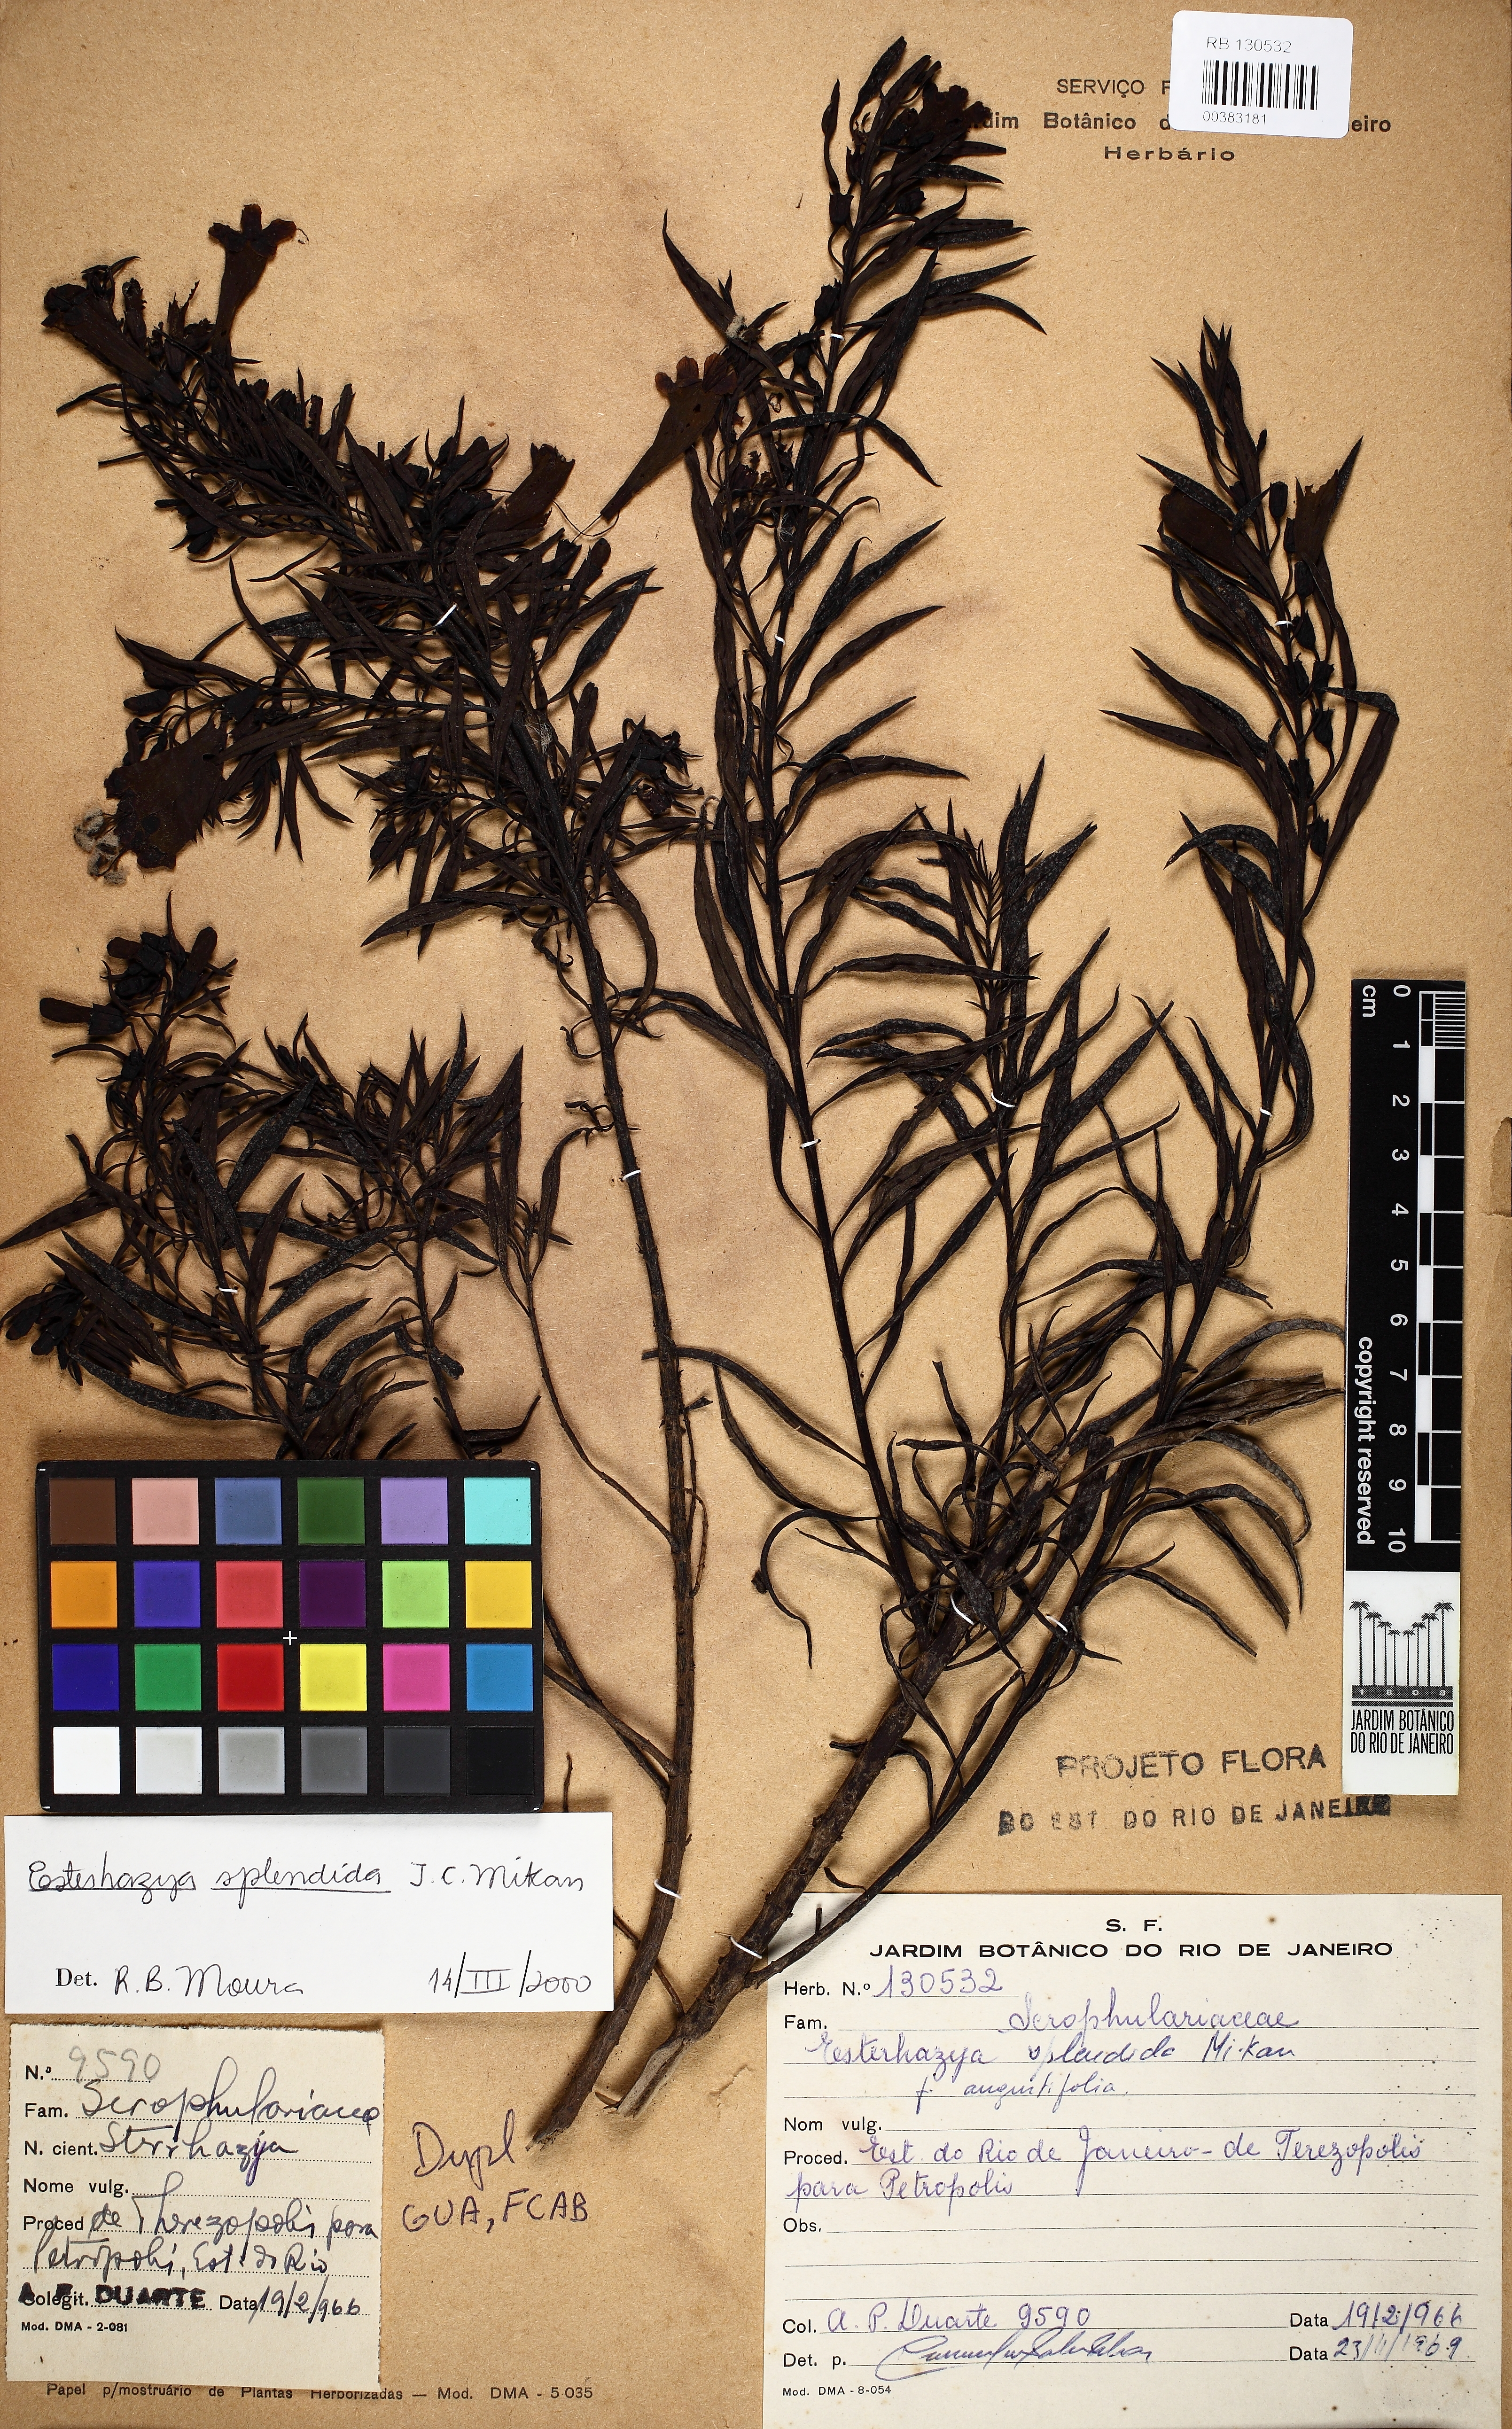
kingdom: Plantae
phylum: Tracheophyta
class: Magnoliopsida
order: Lamiales
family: Orobanchaceae
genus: Esterhazya
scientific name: Esterhazya splendida
